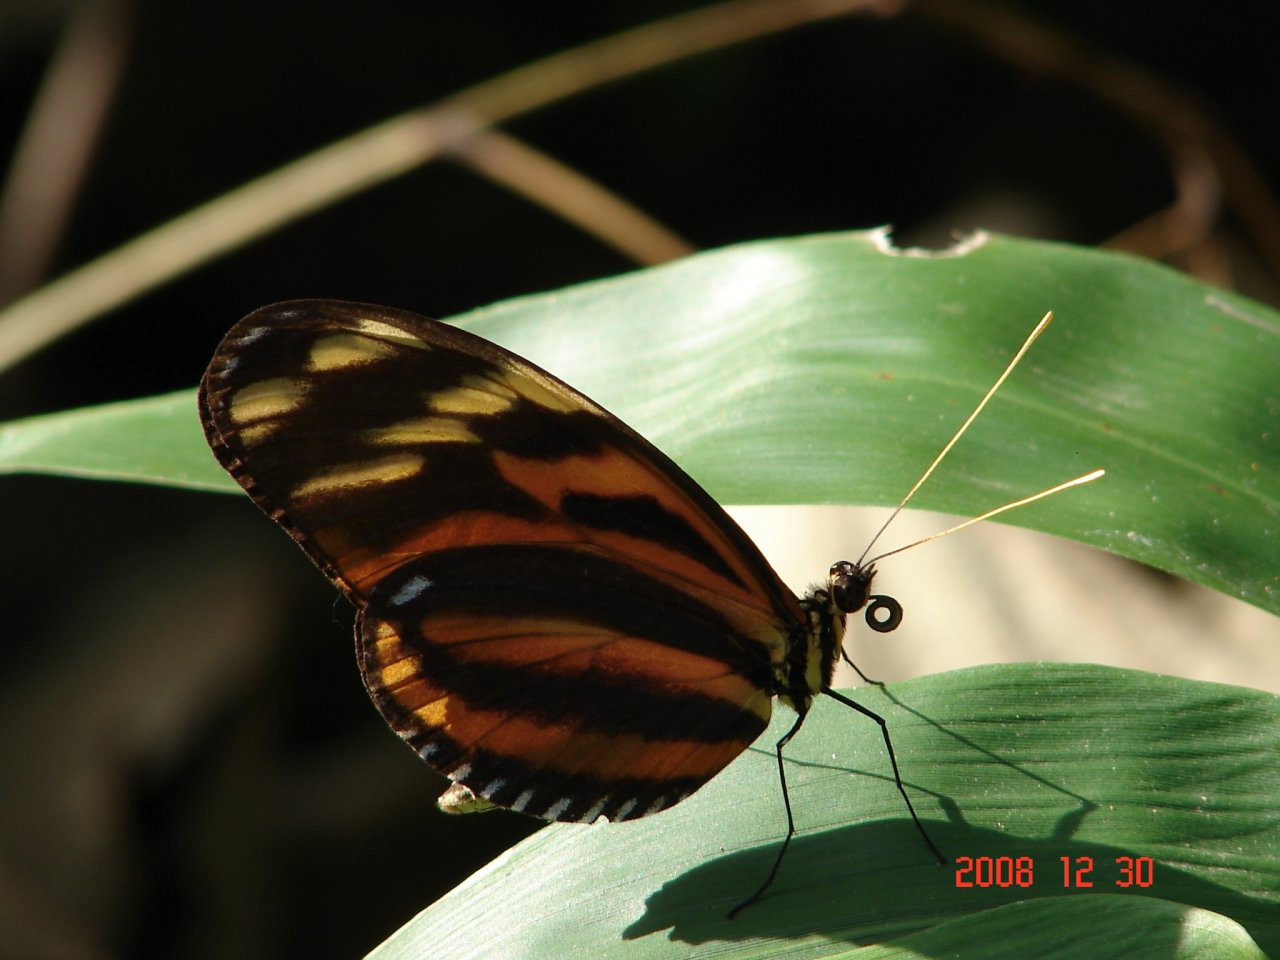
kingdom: Animalia
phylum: Arthropoda
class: Insecta
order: Lepidoptera
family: Nymphalidae
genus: Heliconius
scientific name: Heliconius ismenius
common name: Tiger-striped Longwing
